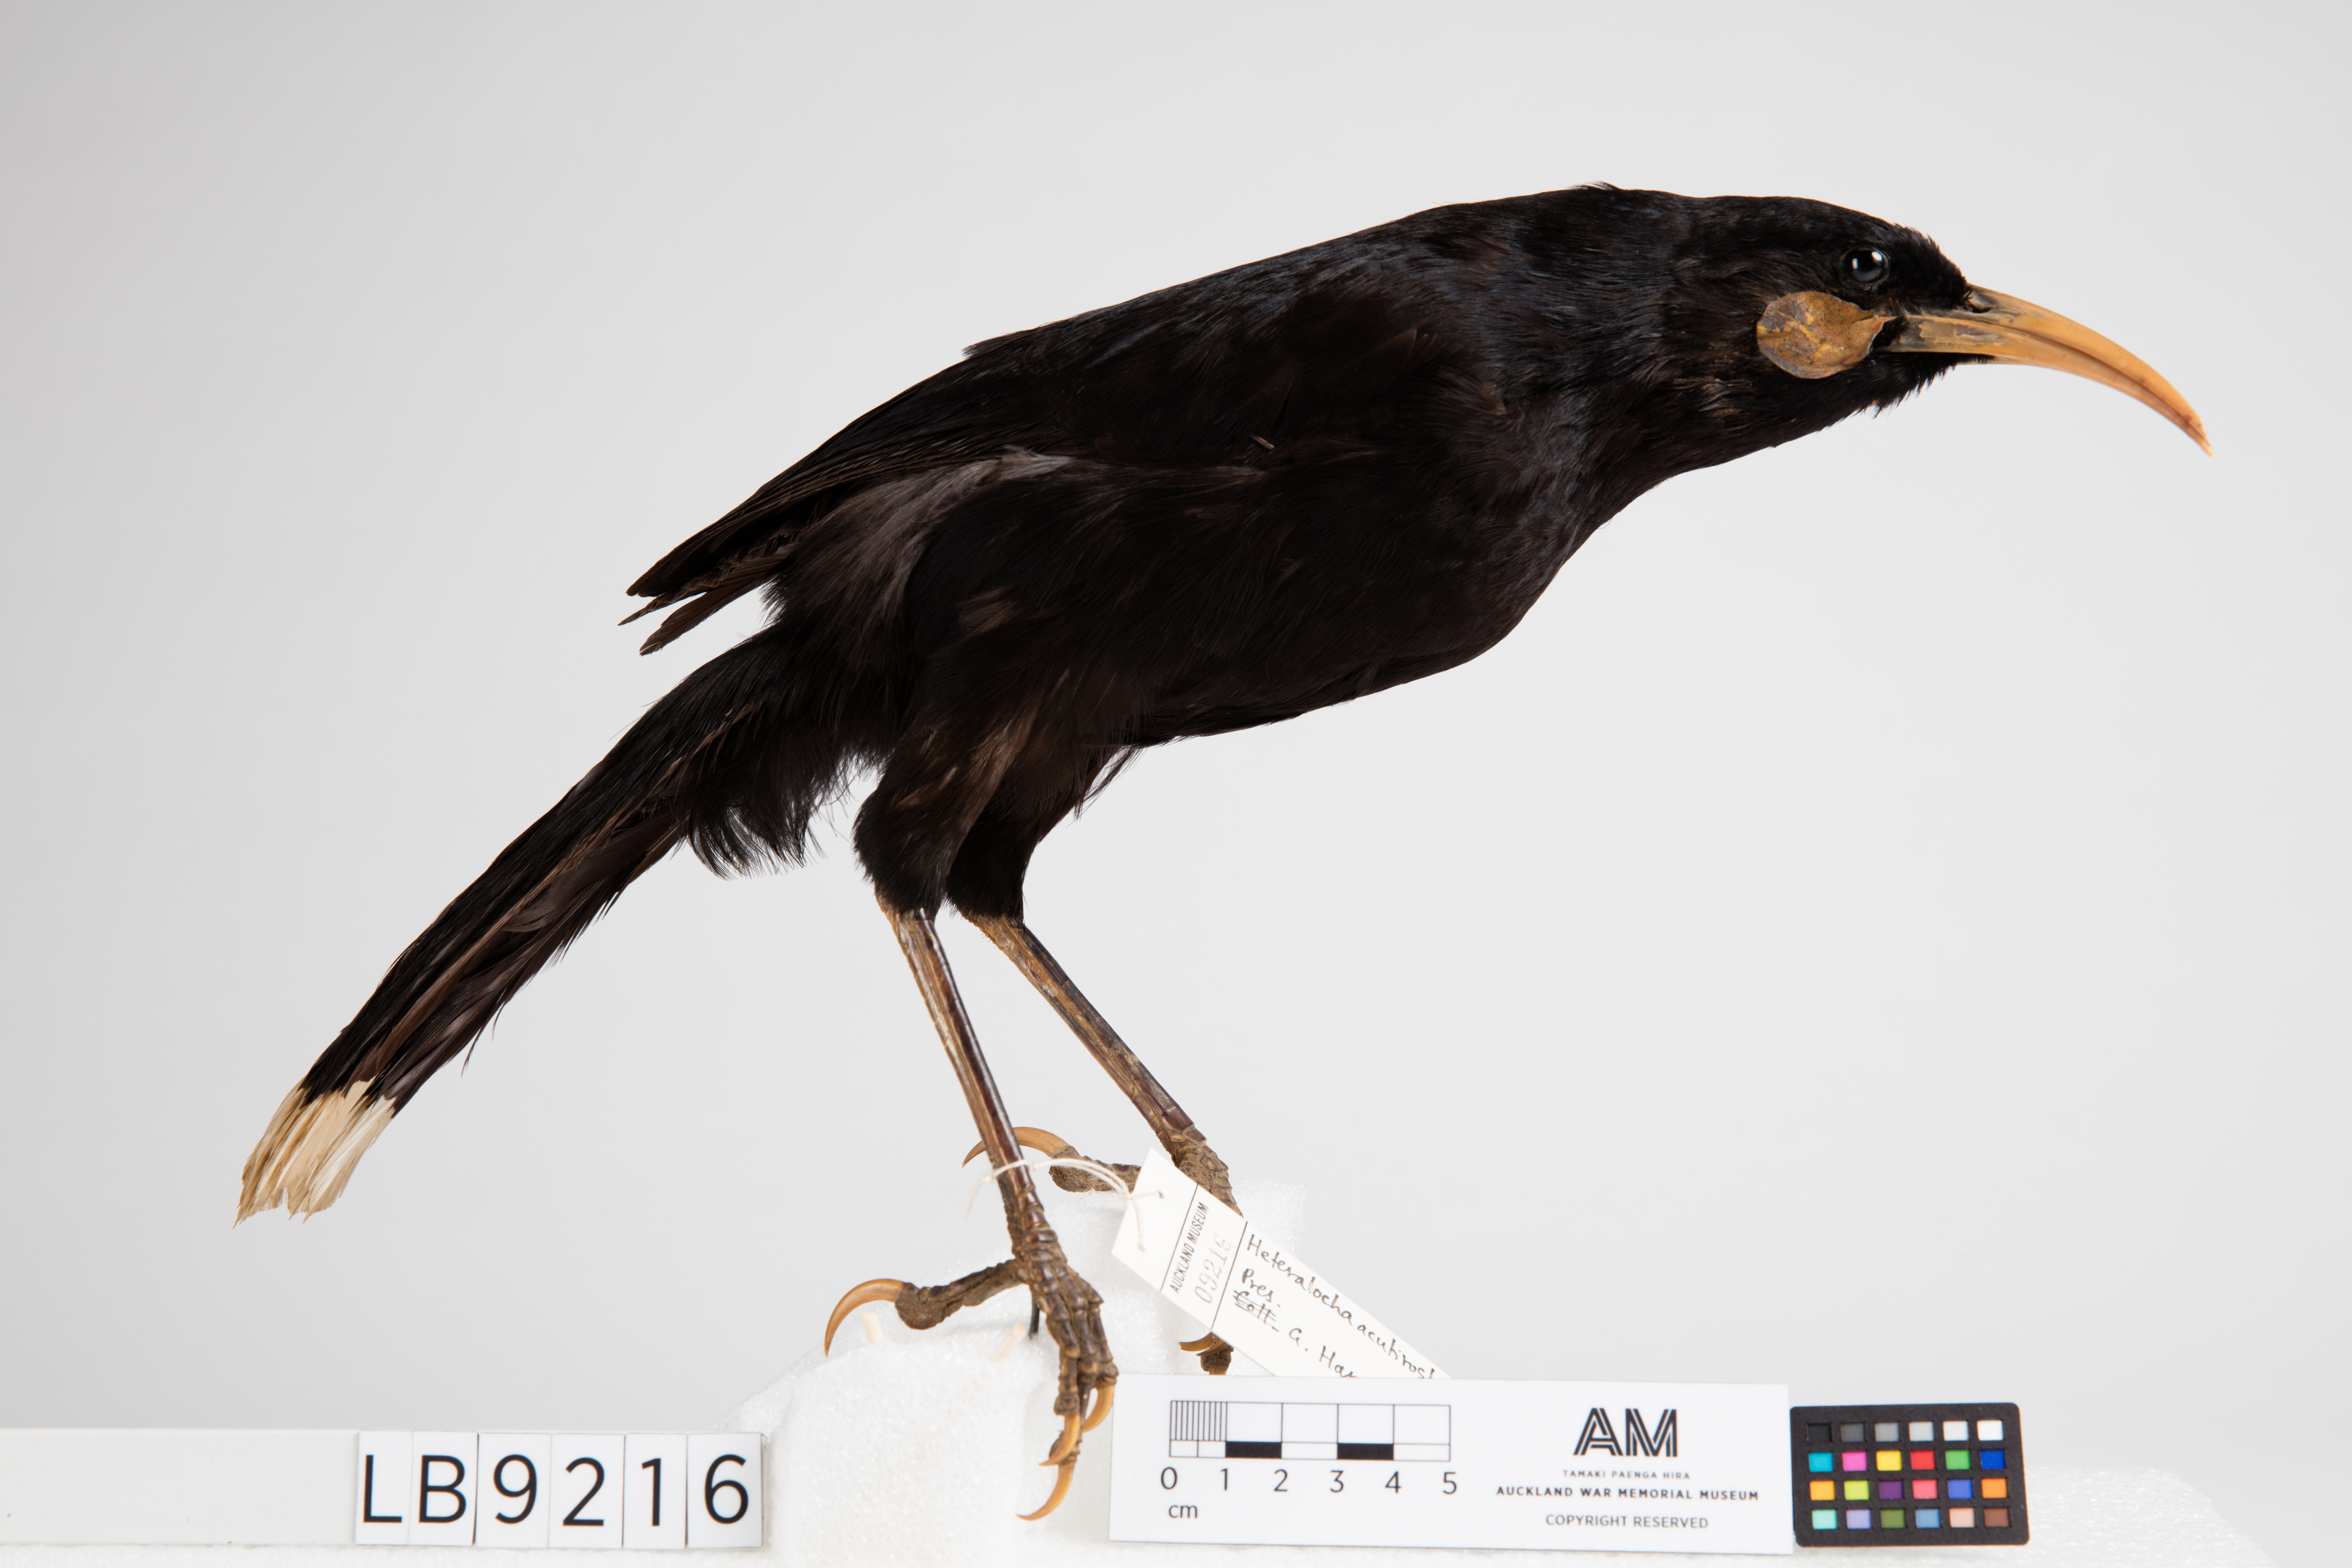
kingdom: Animalia
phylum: Chordata
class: Aves
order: Passeriformes
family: Callaeatidae
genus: Heteralocha
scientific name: Heteralocha acutirostris
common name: Huia
